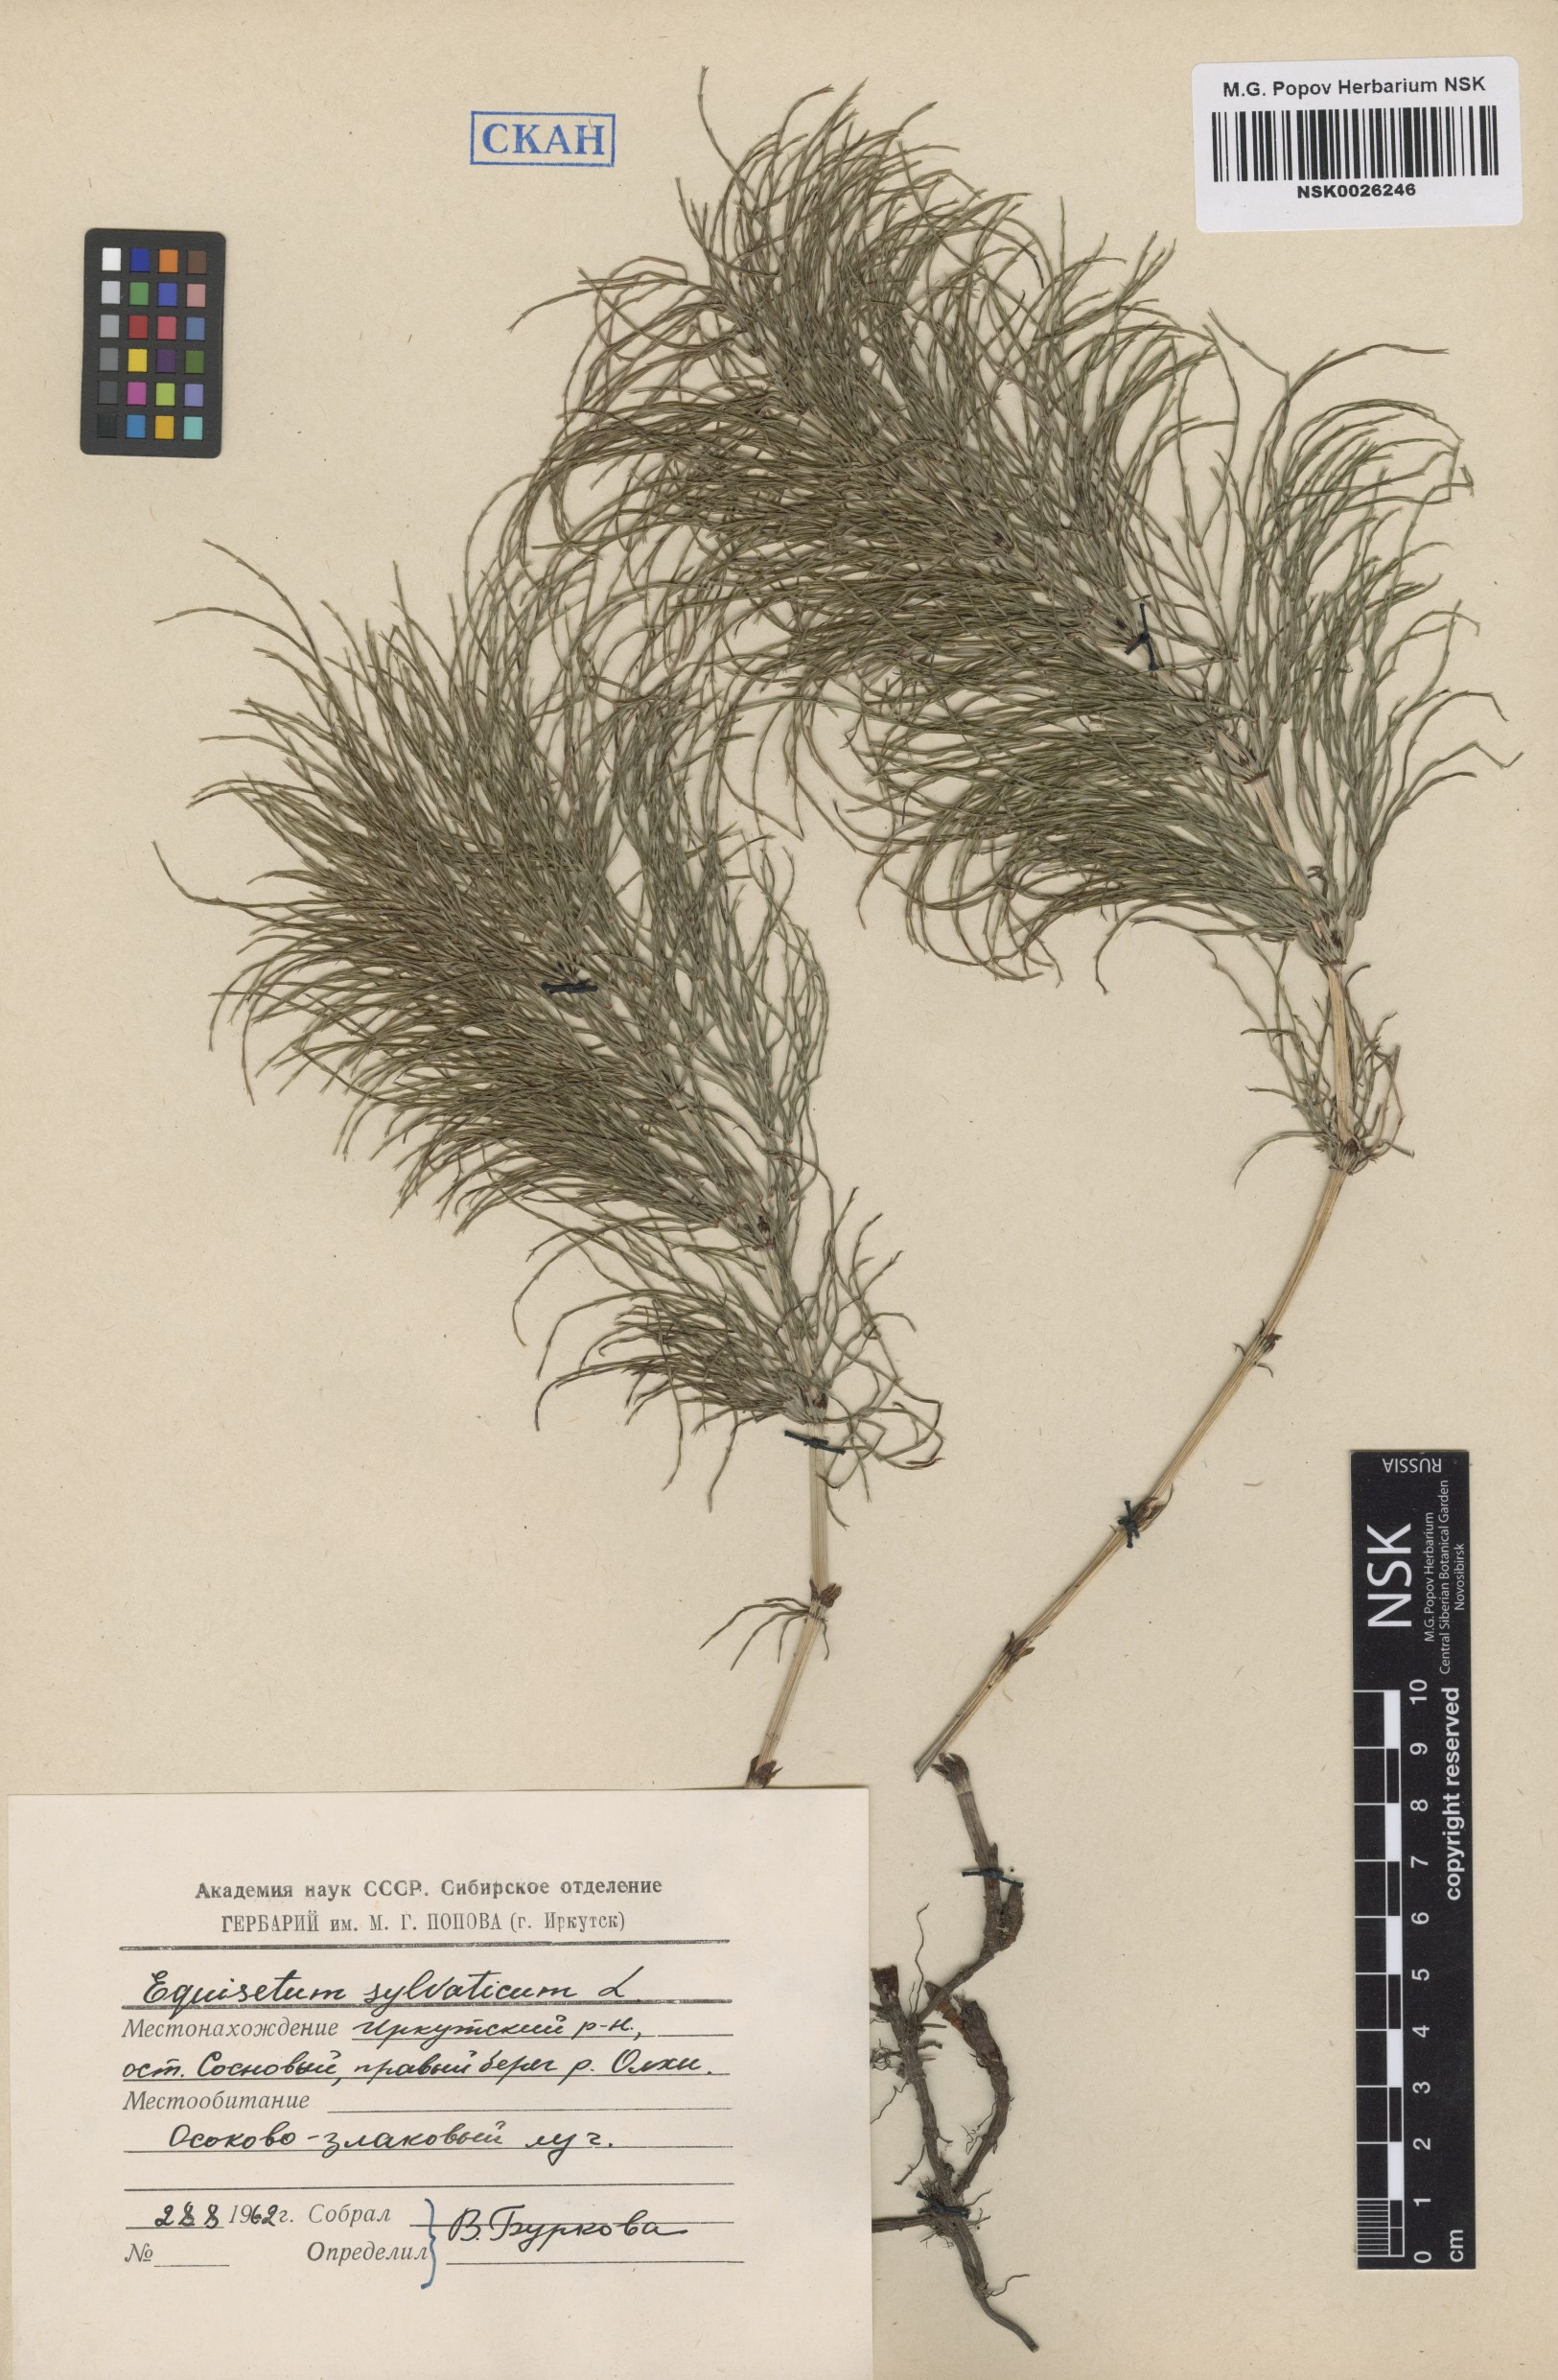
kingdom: Plantae
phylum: Tracheophyta
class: Polypodiopsida
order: Equisetales
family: Equisetaceae
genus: Equisetum
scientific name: Equisetum sylvaticum
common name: Wood horsetail
